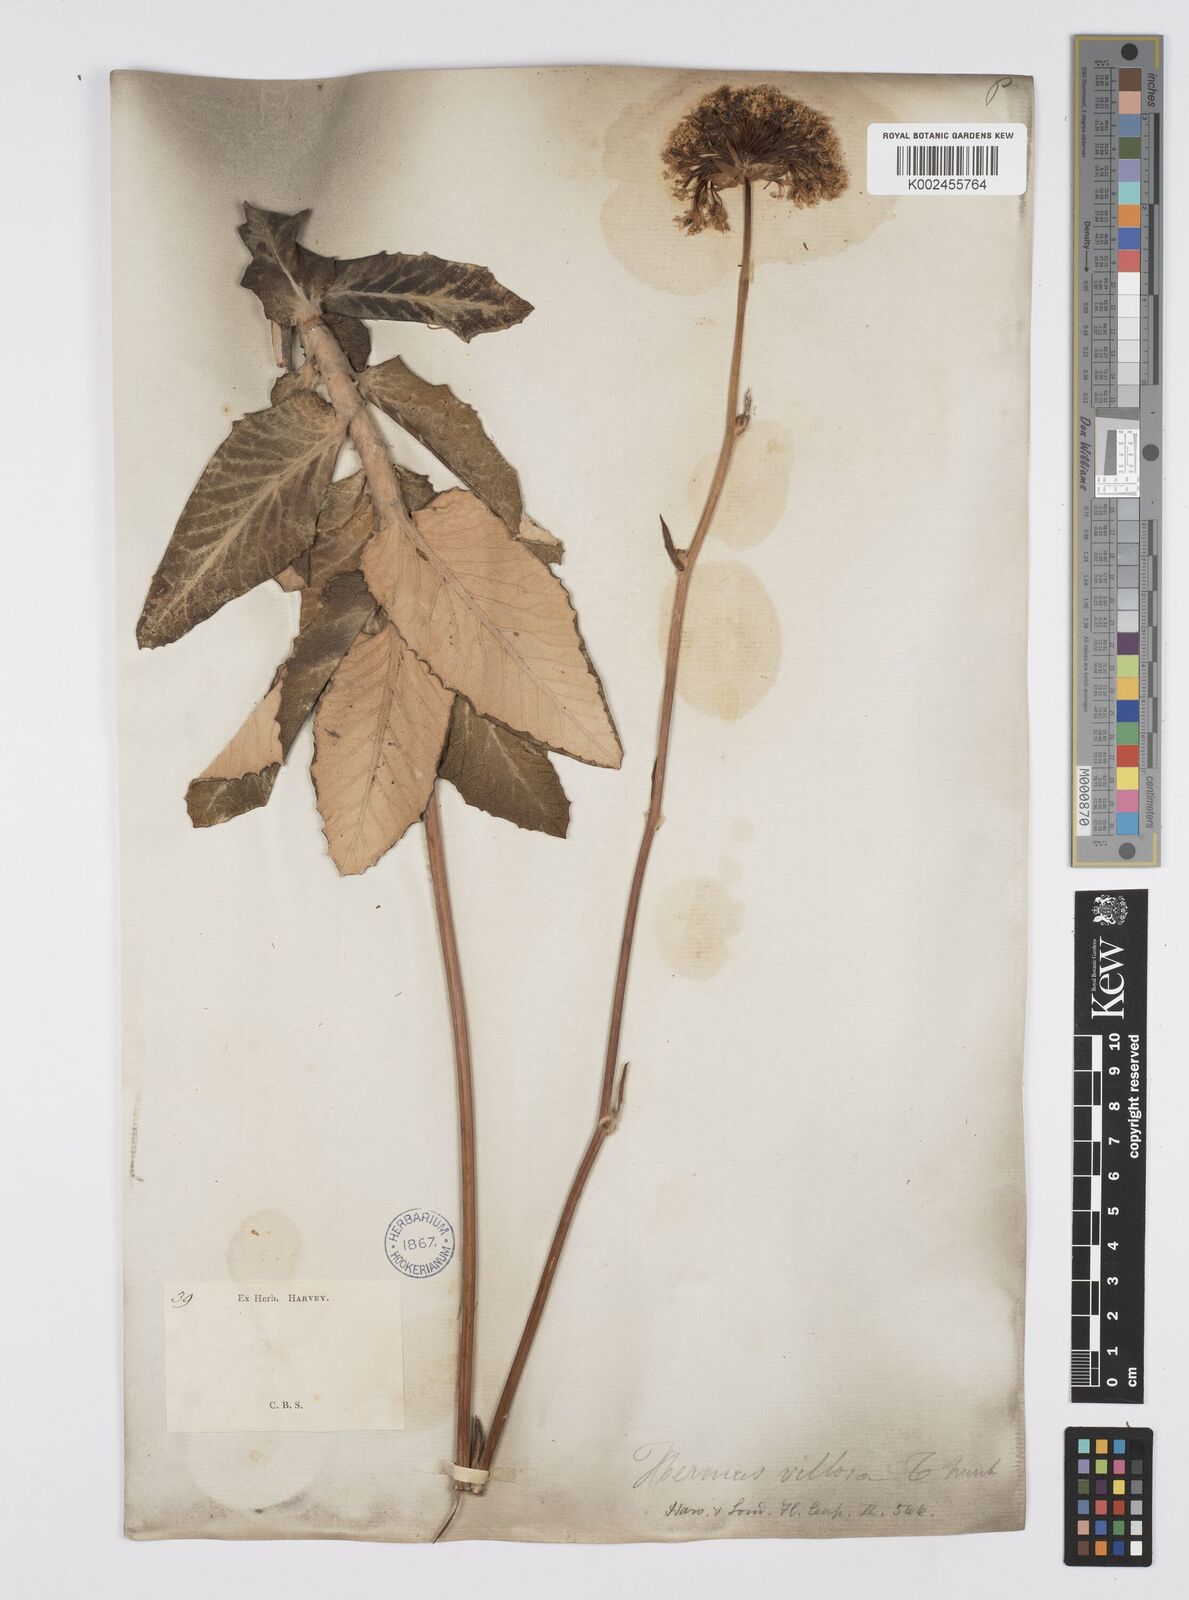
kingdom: Plantae
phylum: Tracheophyta
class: Magnoliopsida
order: Apiales
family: Apiaceae
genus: Hermas
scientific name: Hermas villosa
